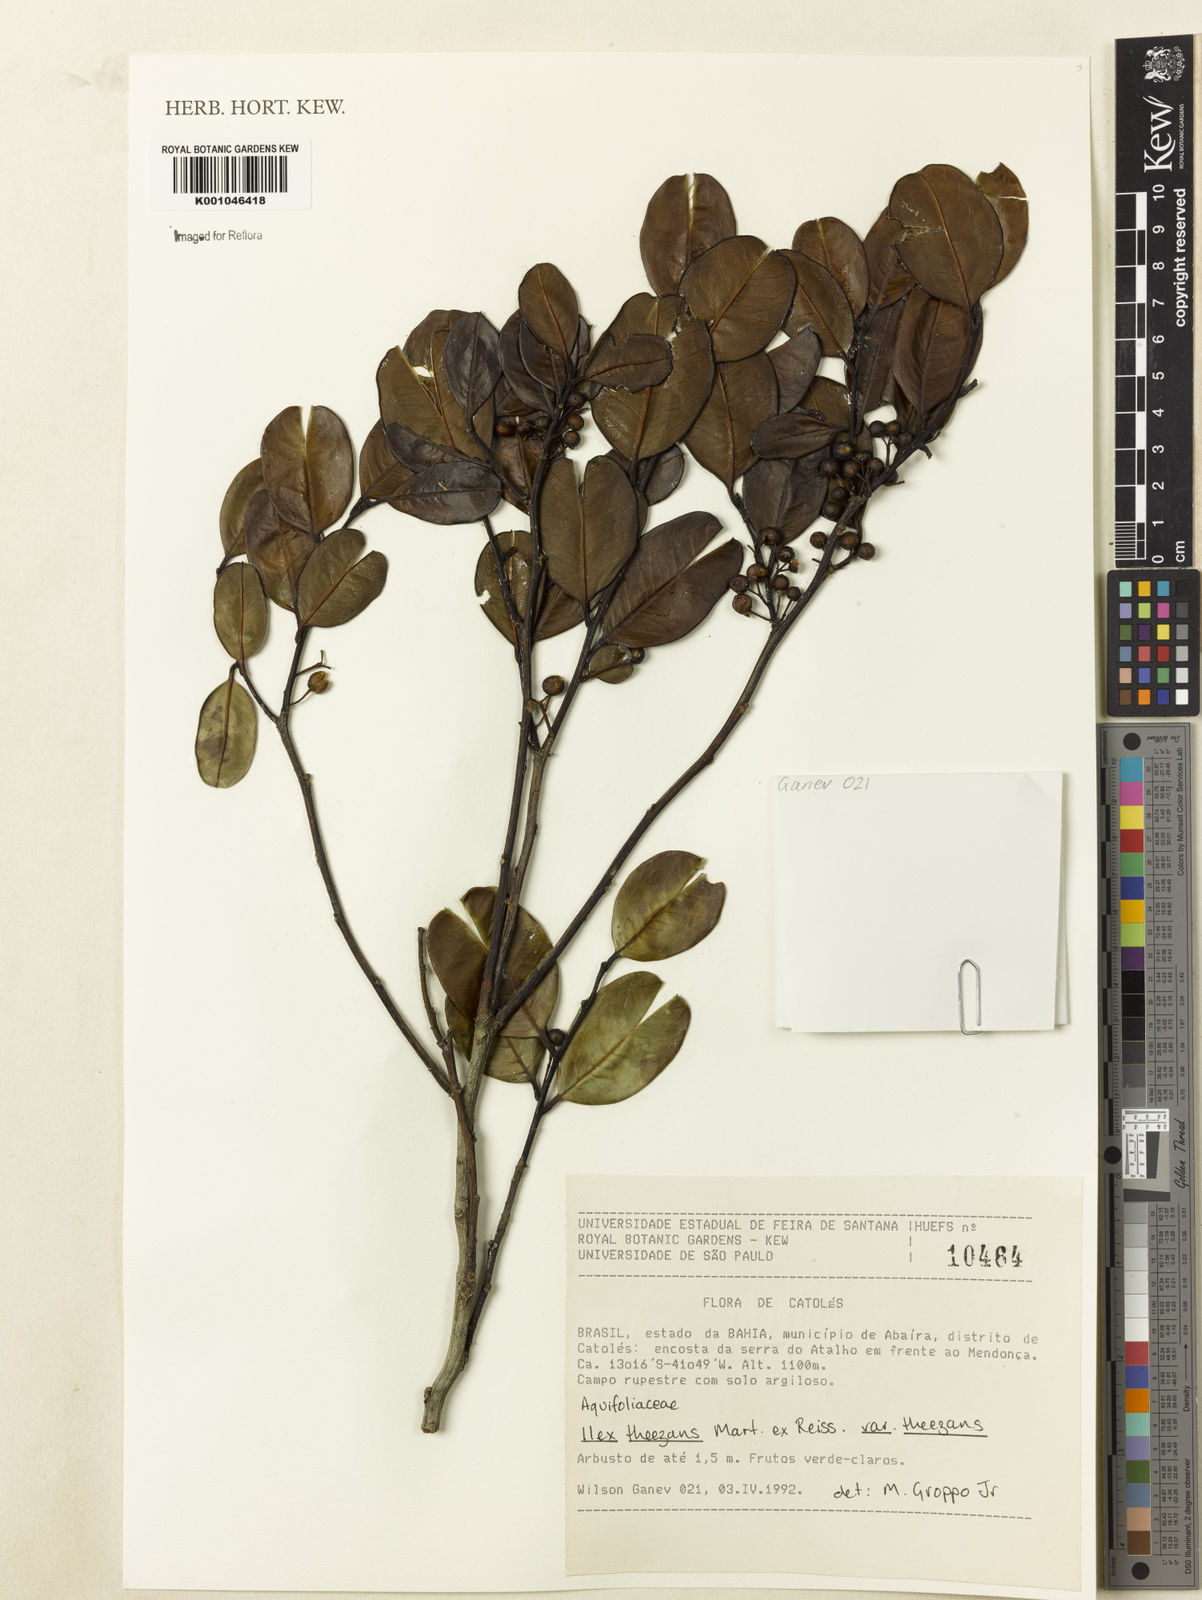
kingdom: Plantae
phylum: Tracheophyta
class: Magnoliopsida
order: Aquifoliales
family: Aquifoliaceae
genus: Ilex
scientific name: Ilex paraguariensis
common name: Paraguay tea
